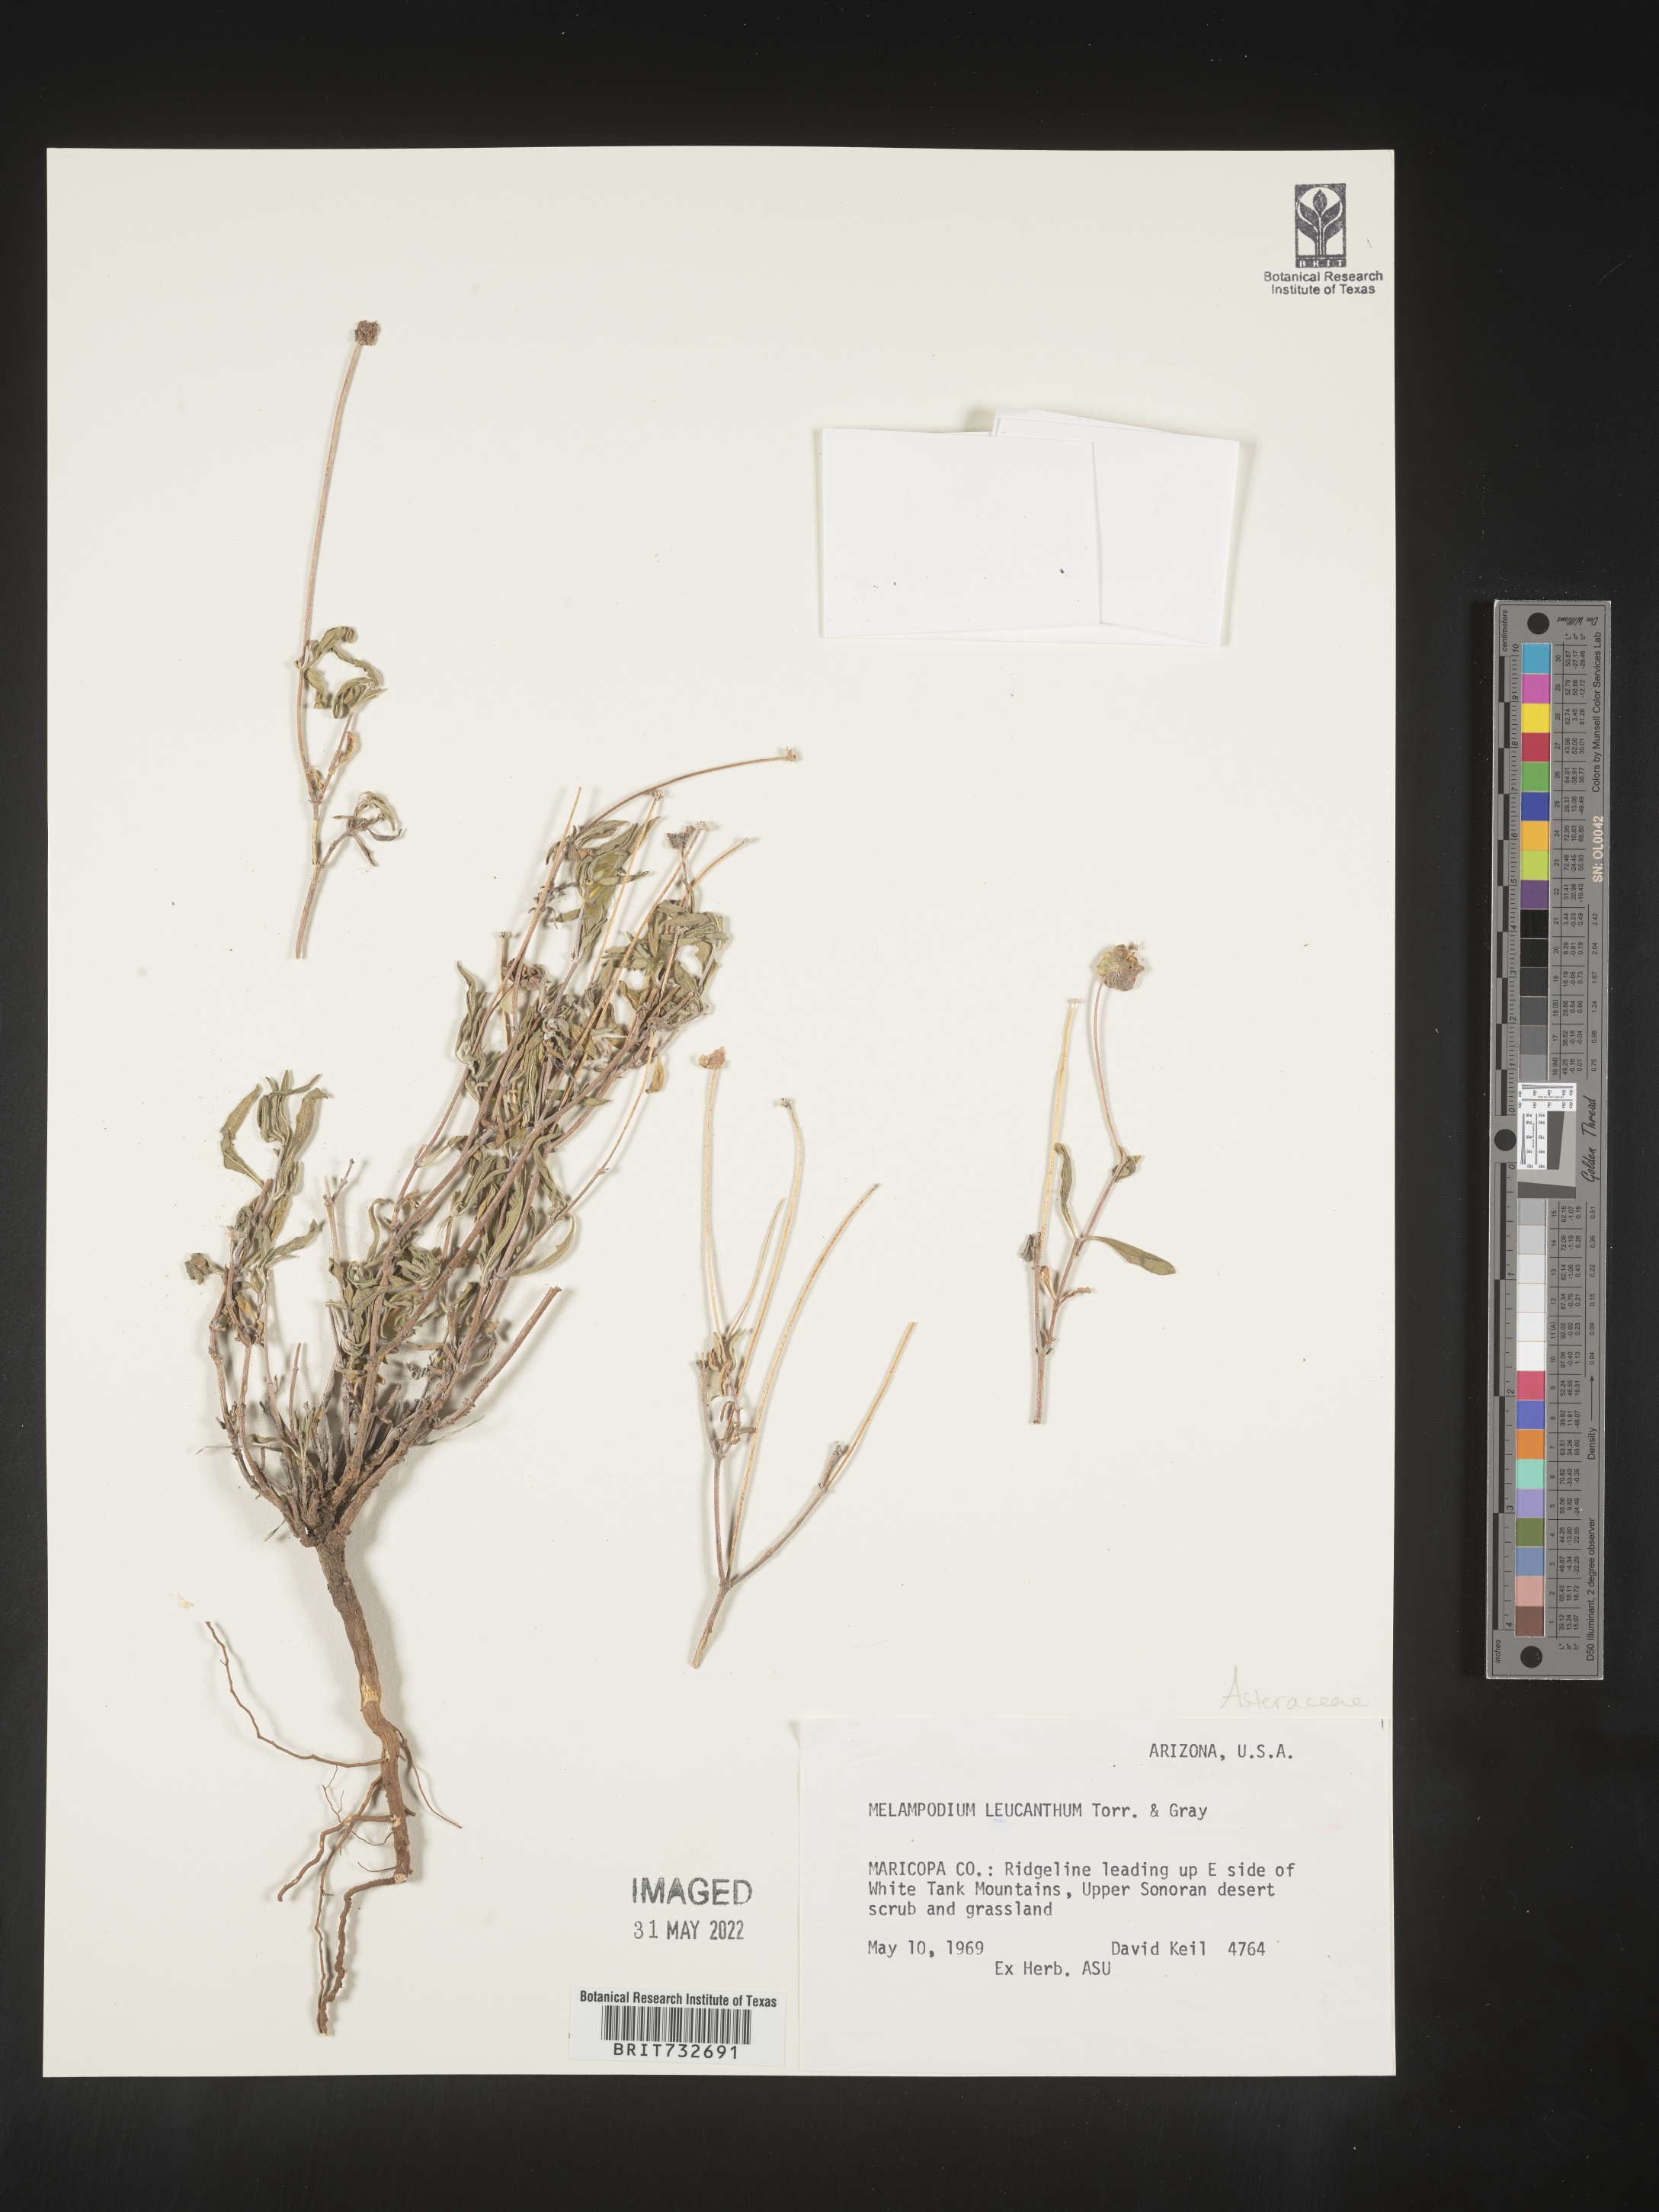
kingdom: Plantae
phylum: Tracheophyta
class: Magnoliopsida
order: Asterales
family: Asteraceae
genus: Melampodium
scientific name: Melampodium leucanthum
